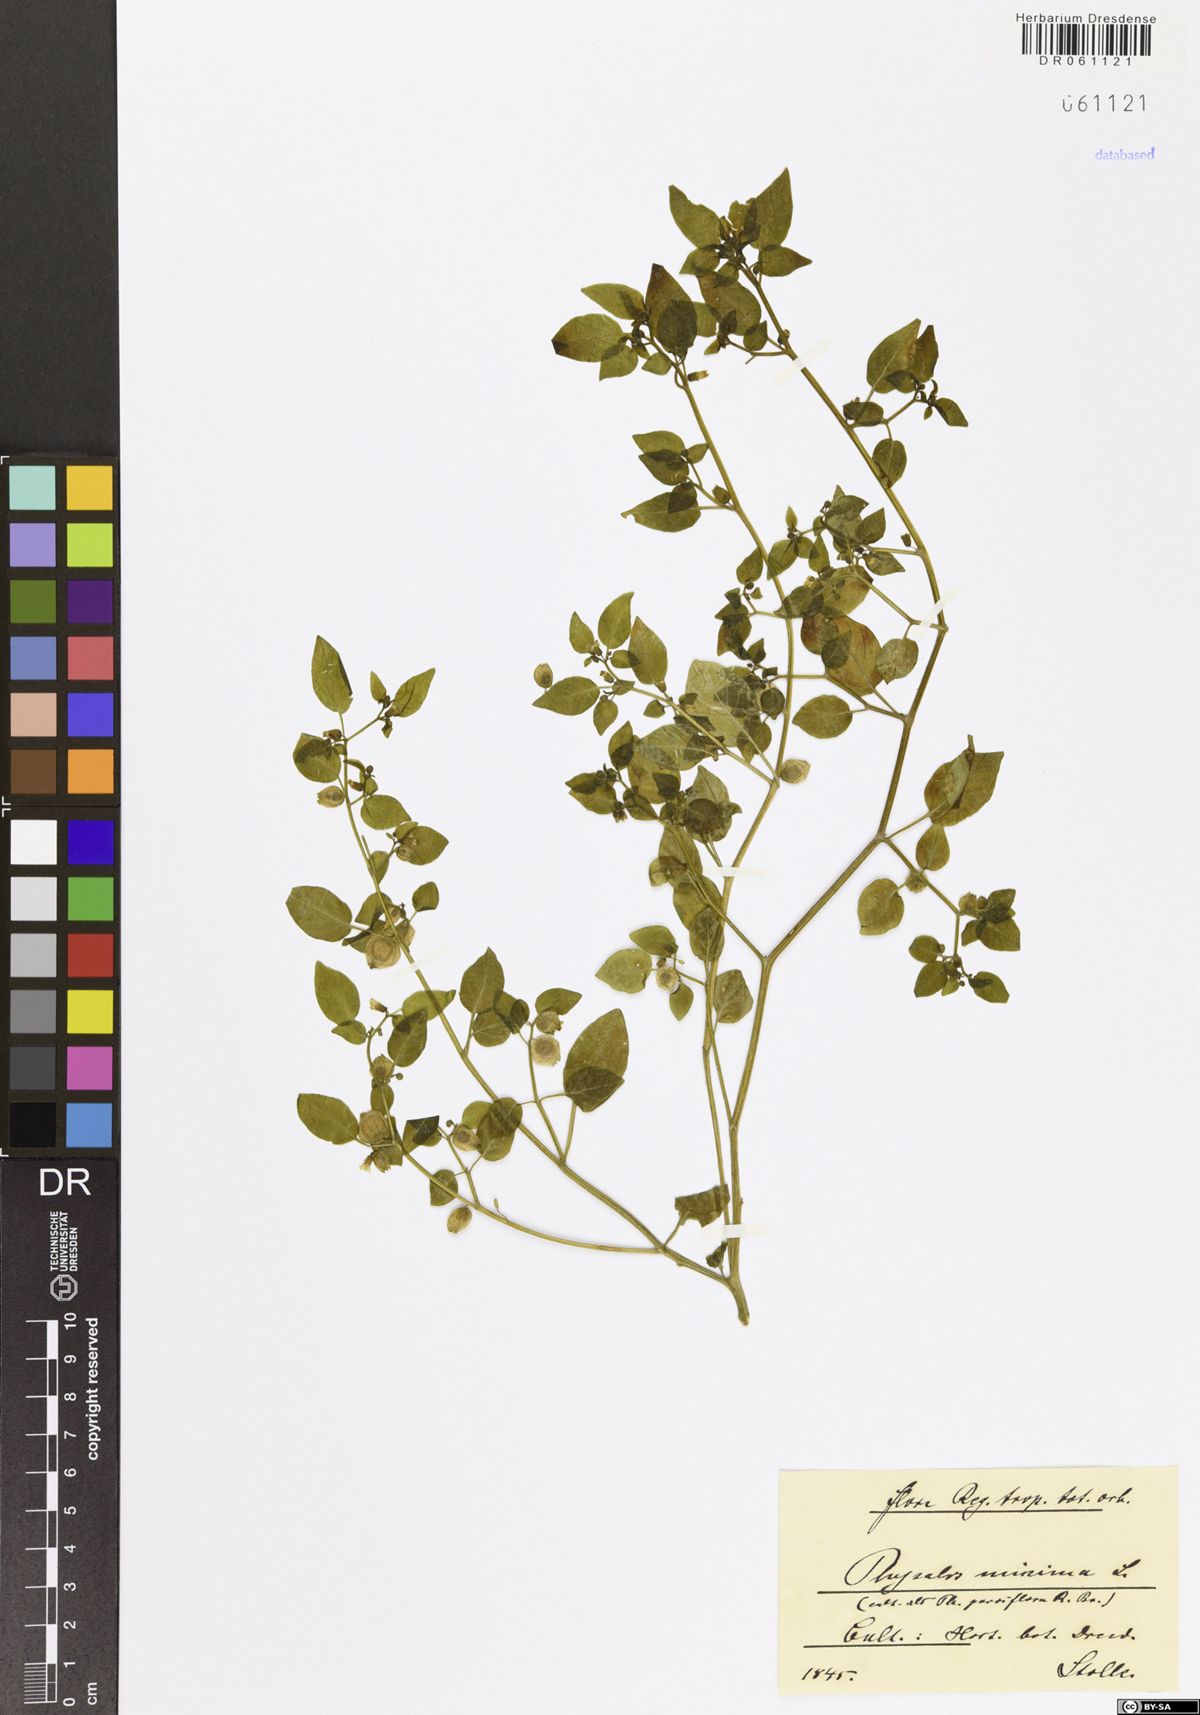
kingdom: Plantae
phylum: Tracheophyta
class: Magnoliopsida
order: Solanales
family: Solanaceae
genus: Physalis
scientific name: Physalis angulata
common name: Angular winter-cherry
